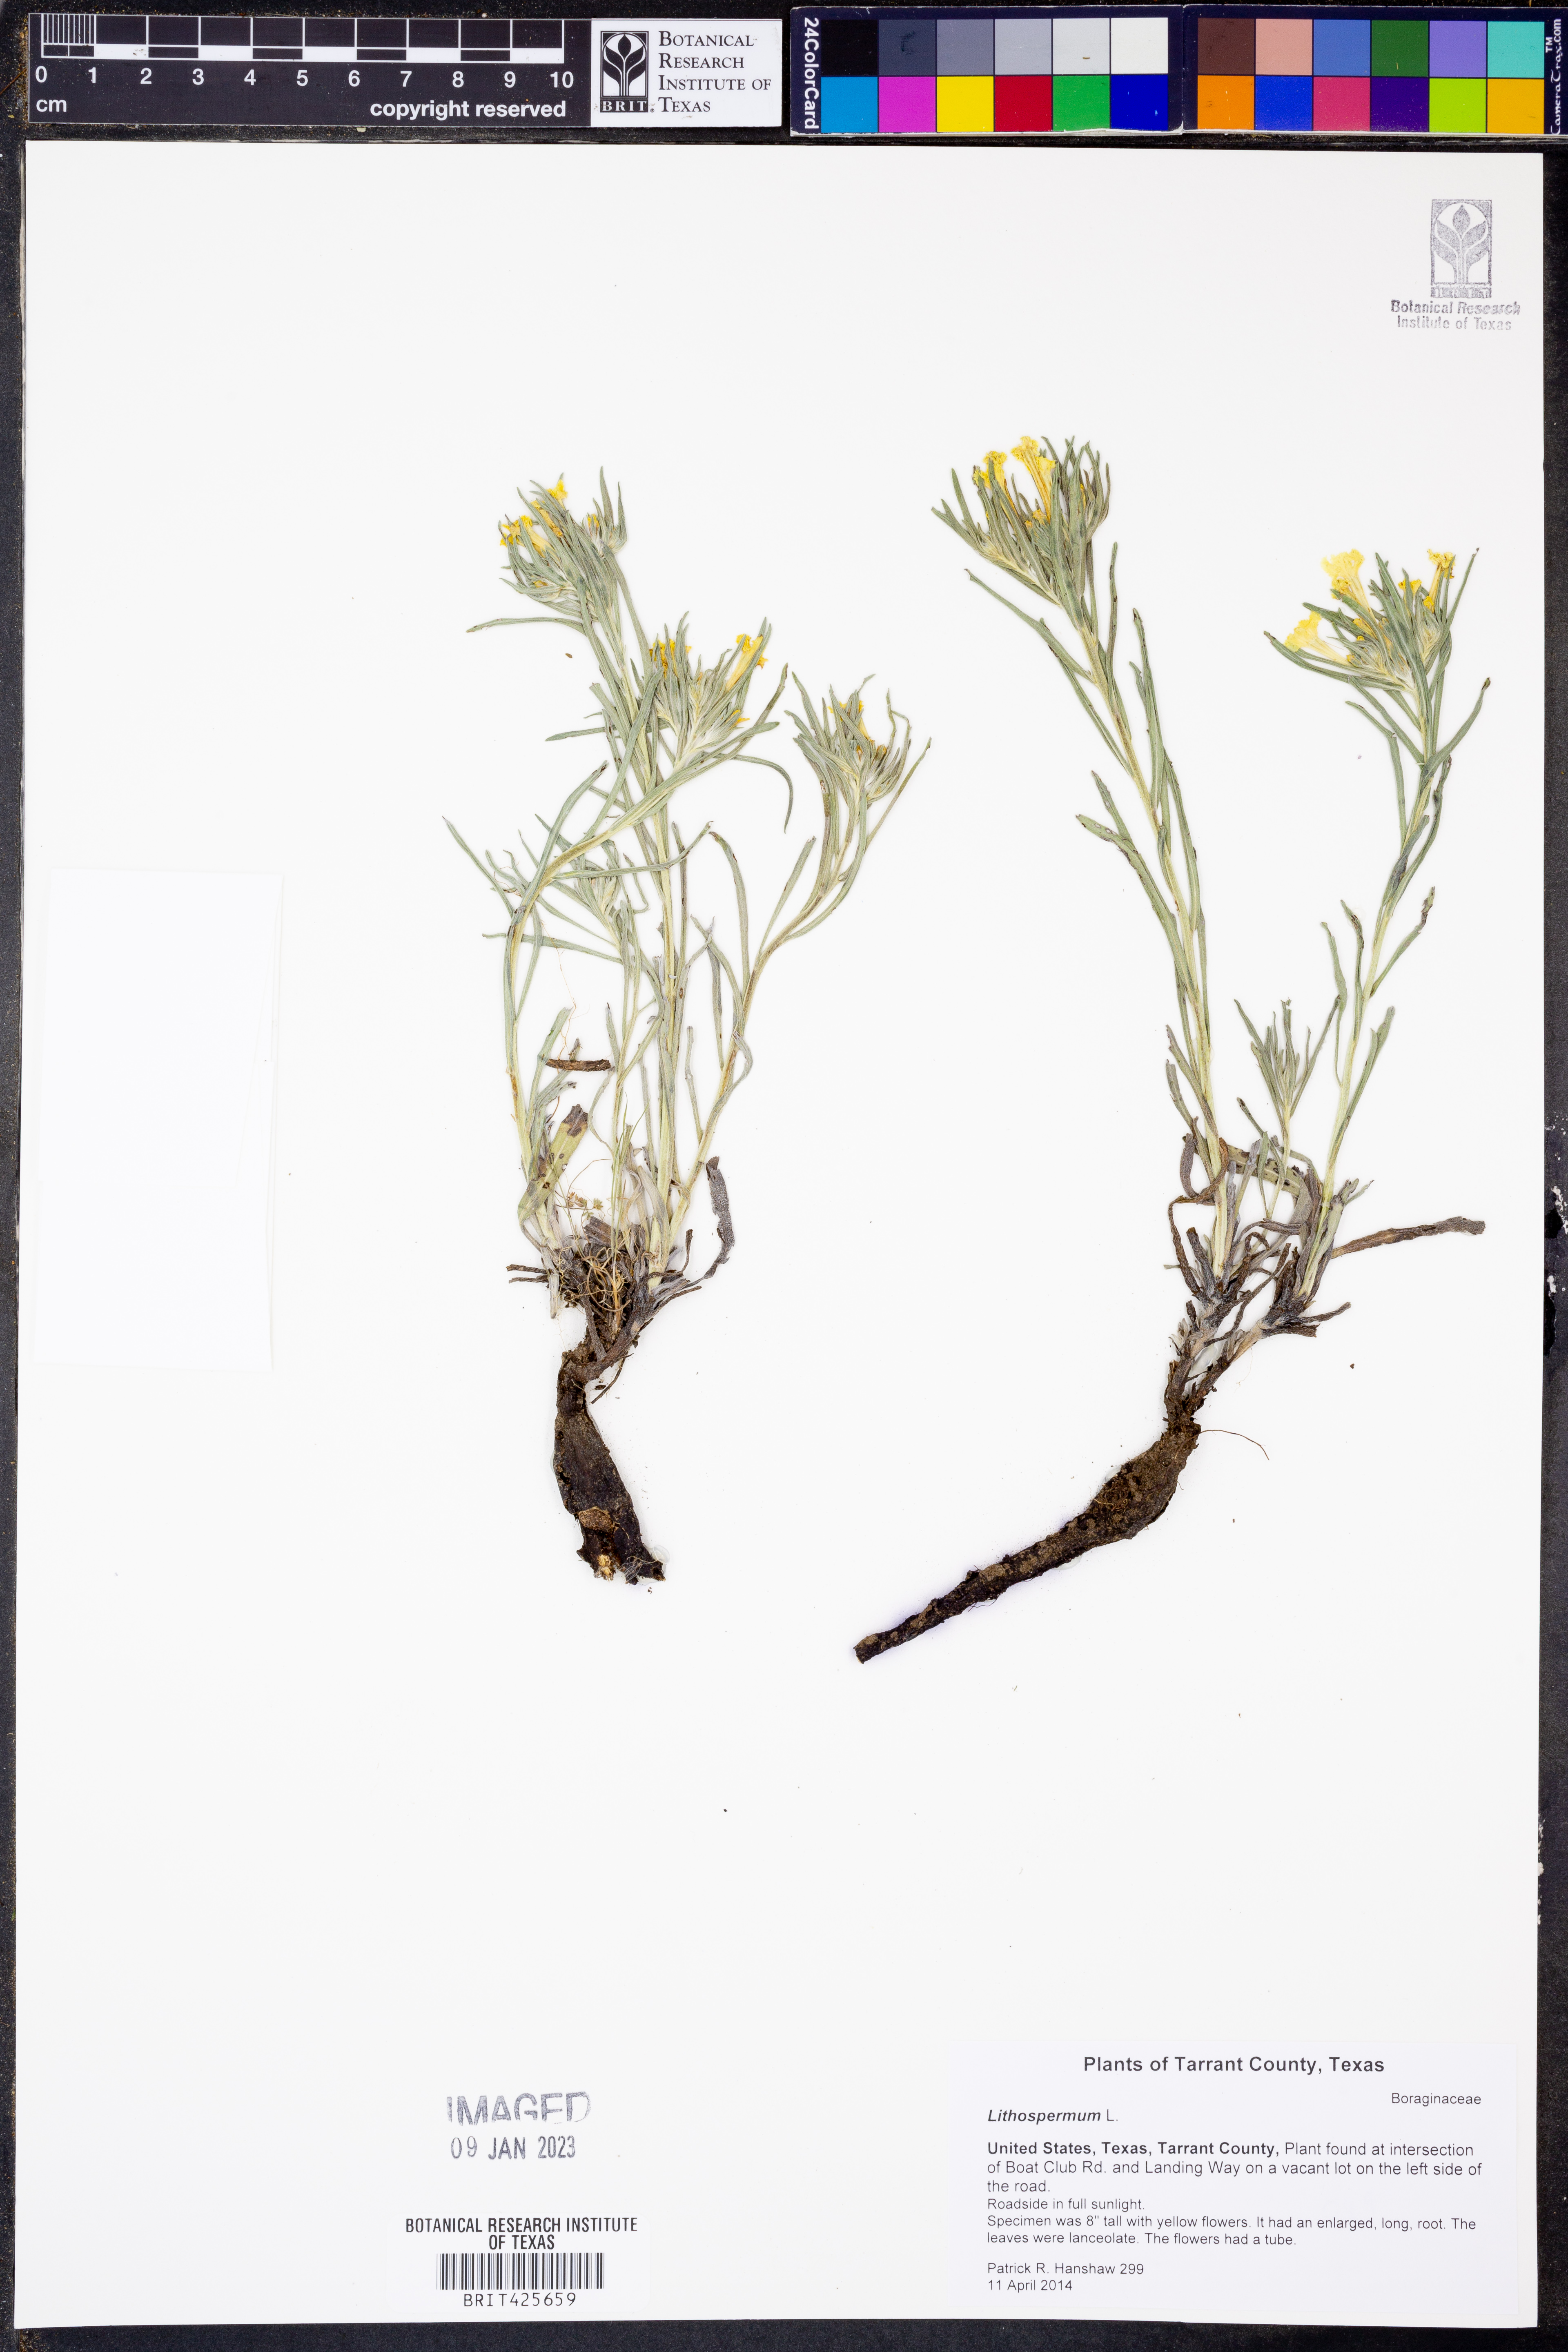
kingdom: Plantae
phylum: Tracheophyta
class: Magnoliopsida
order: Boraginales
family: Boraginaceae
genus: Lithospermum
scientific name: Lithospermum
